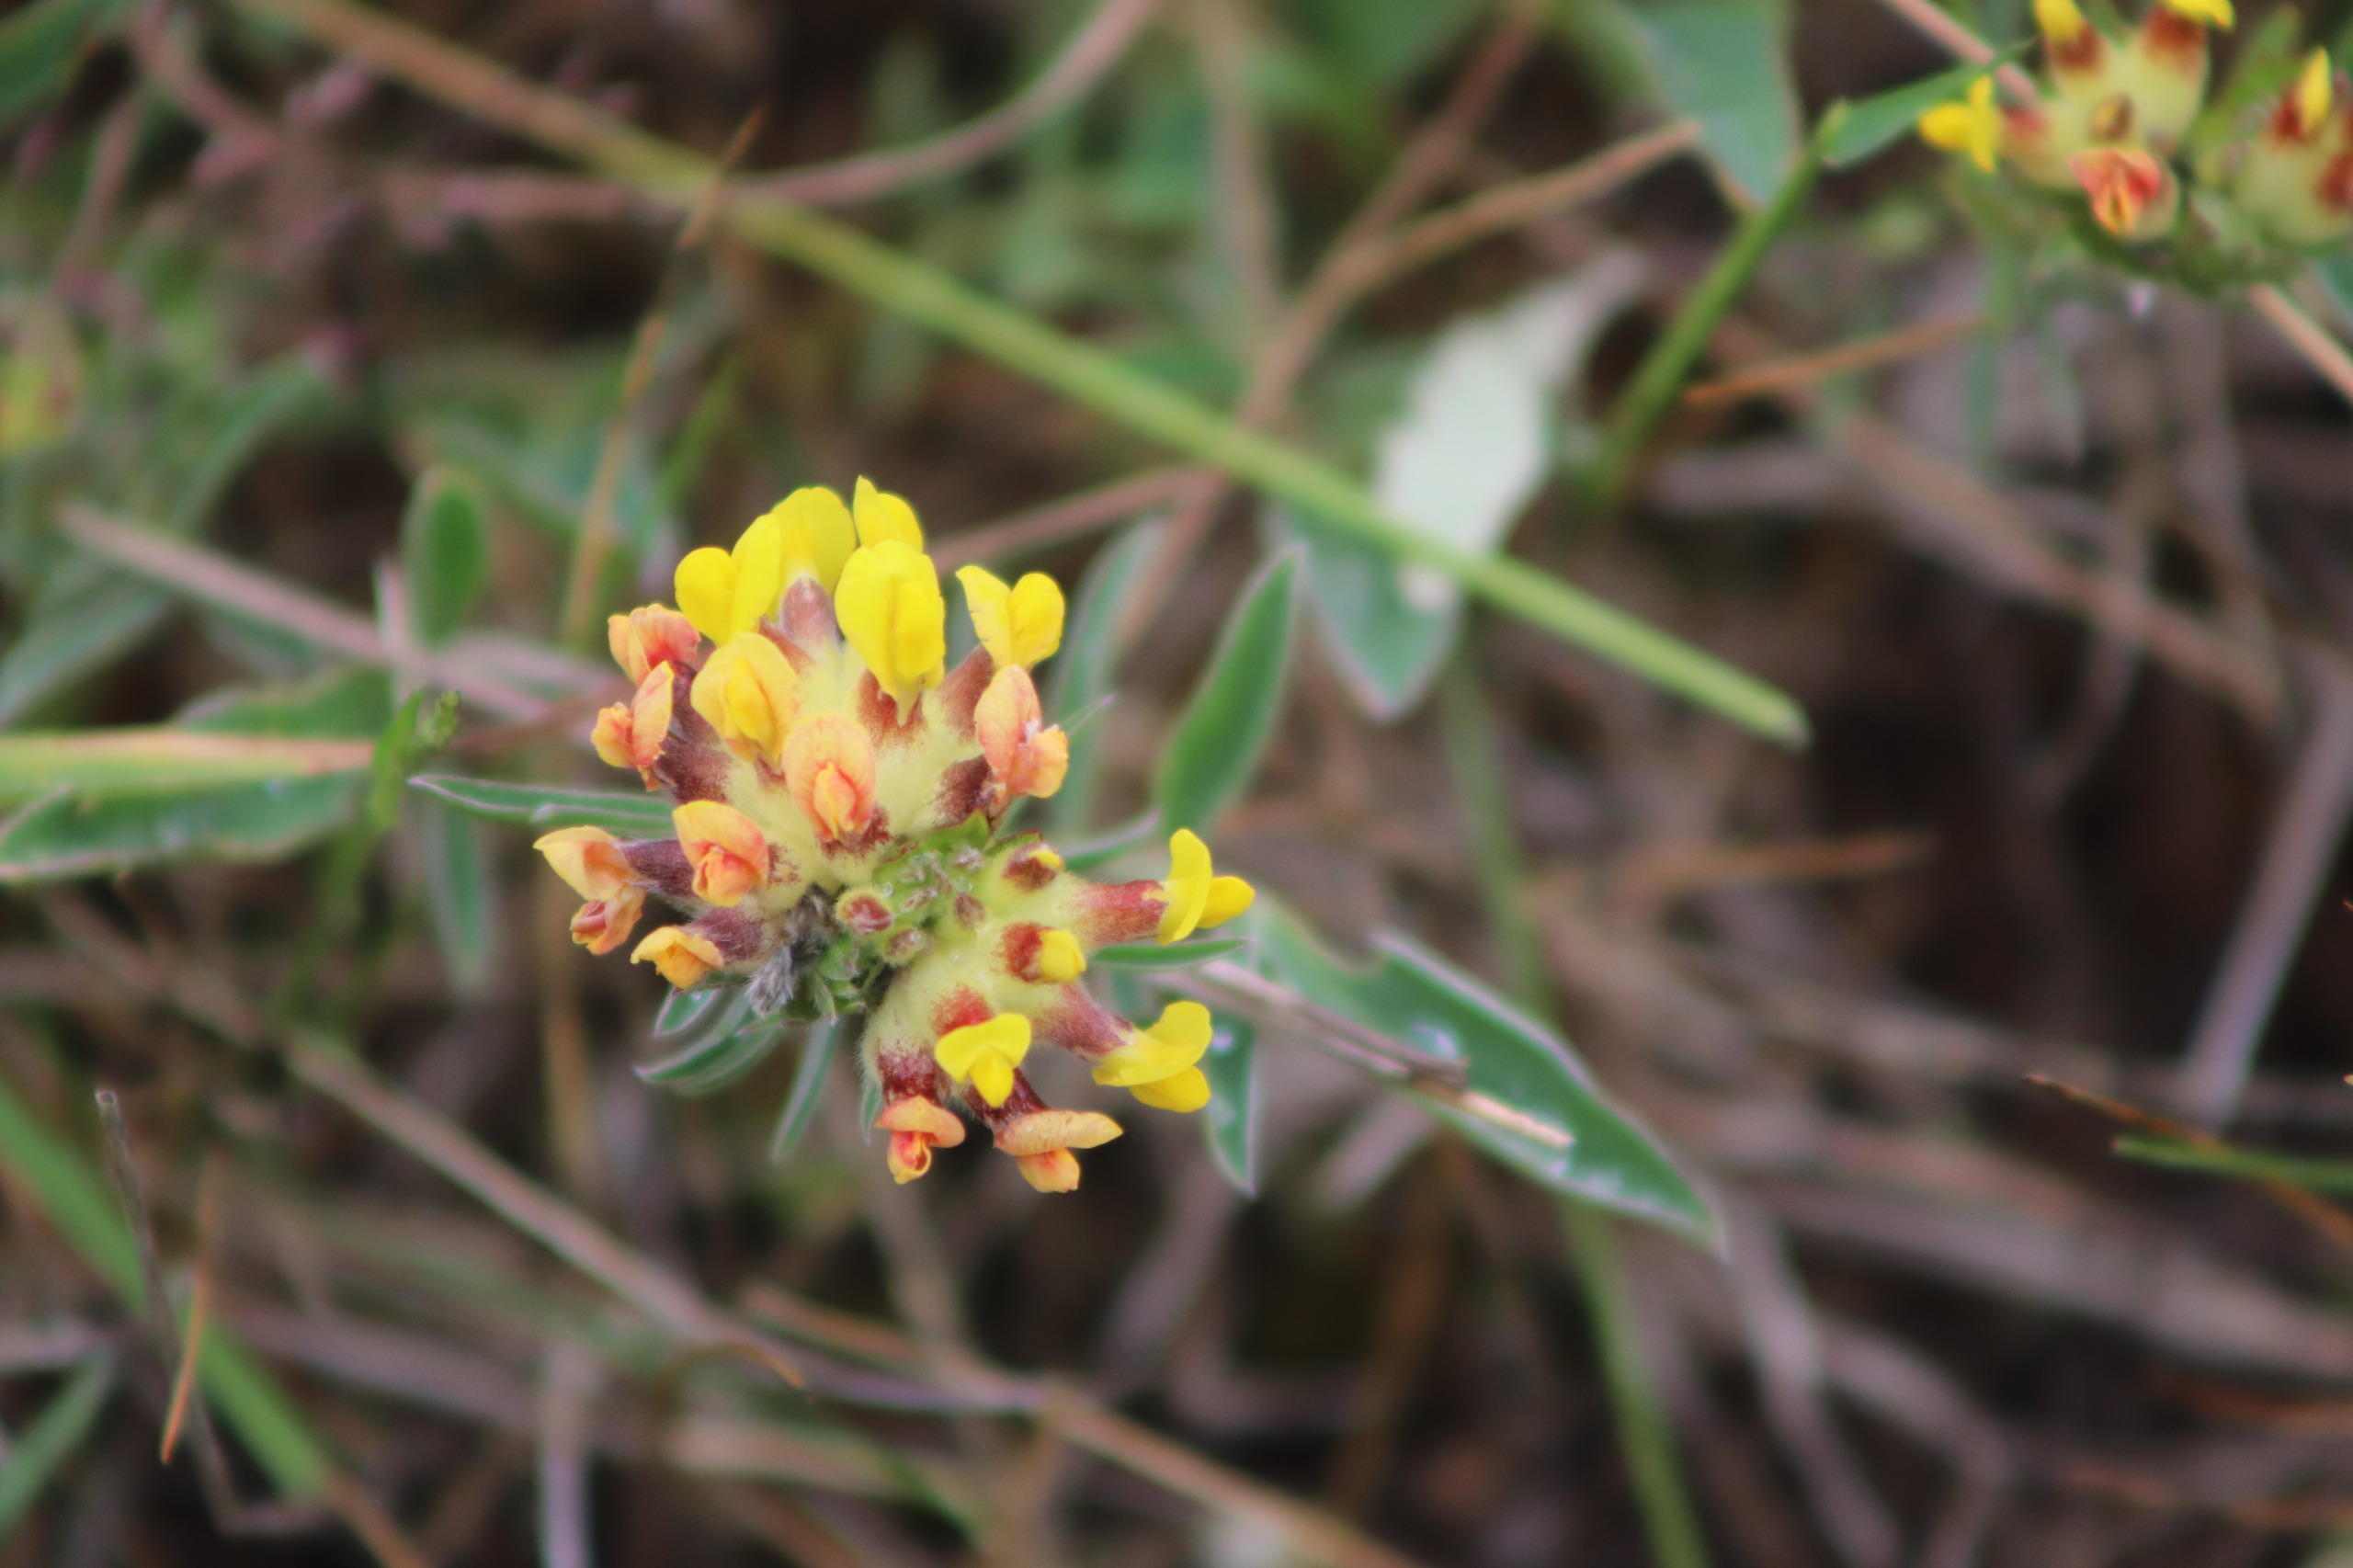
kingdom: Plantae
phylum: Tracheophyta
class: Magnoliopsida
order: Fabales
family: Fabaceae
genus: Anthyllis
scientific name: Anthyllis vulneraria
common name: Rundbælg
